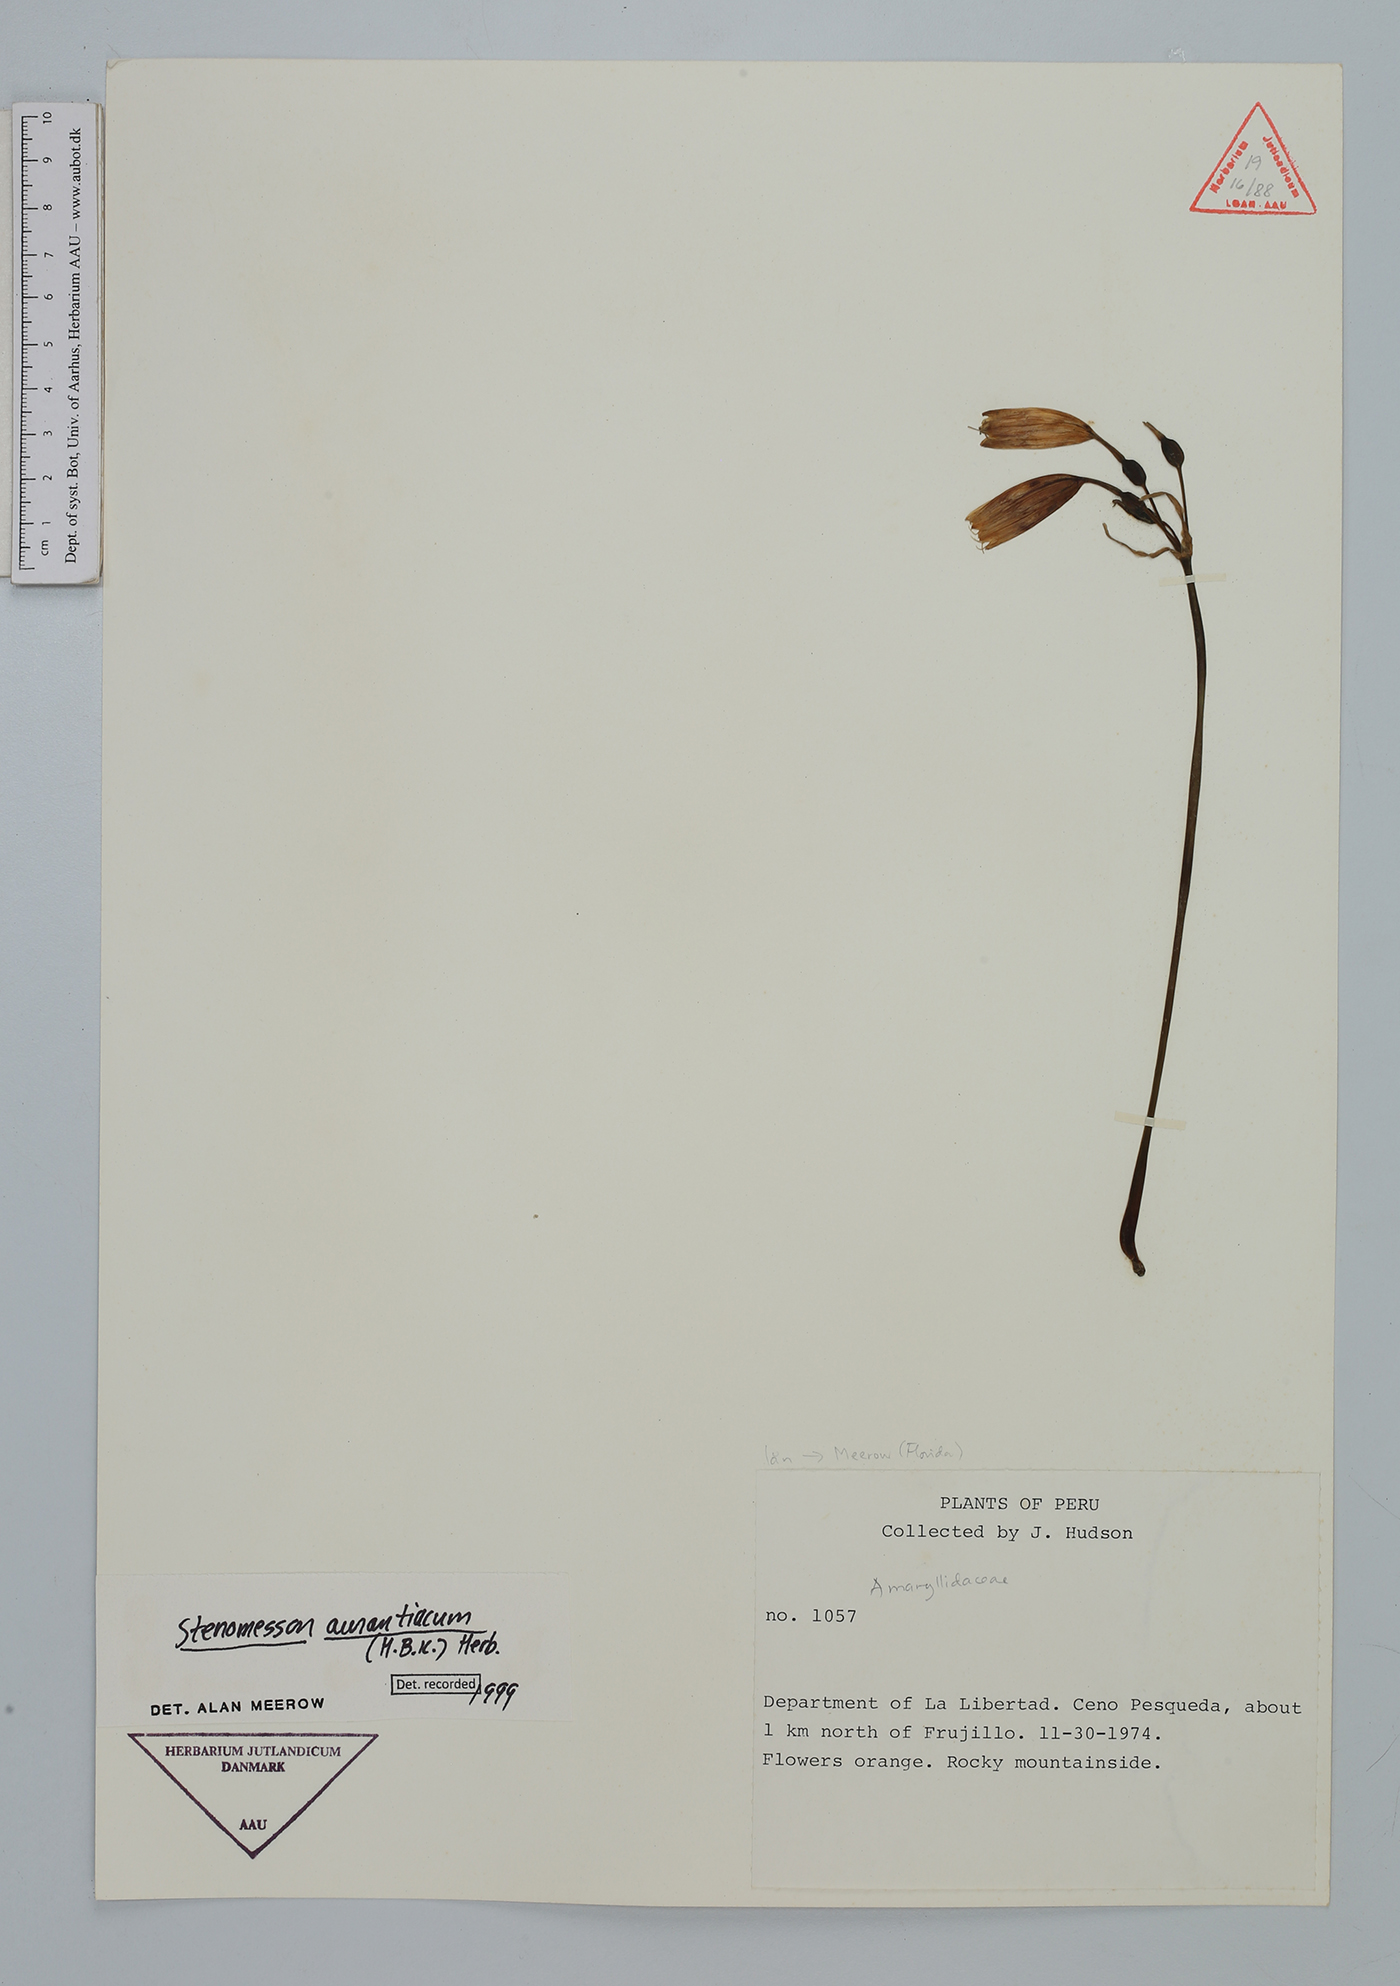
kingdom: Plantae
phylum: Tracheophyta
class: Liliopsida
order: Asparagales
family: Amaryllidaceae
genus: Stenomesson
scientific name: Stenomesson aurantiacum
